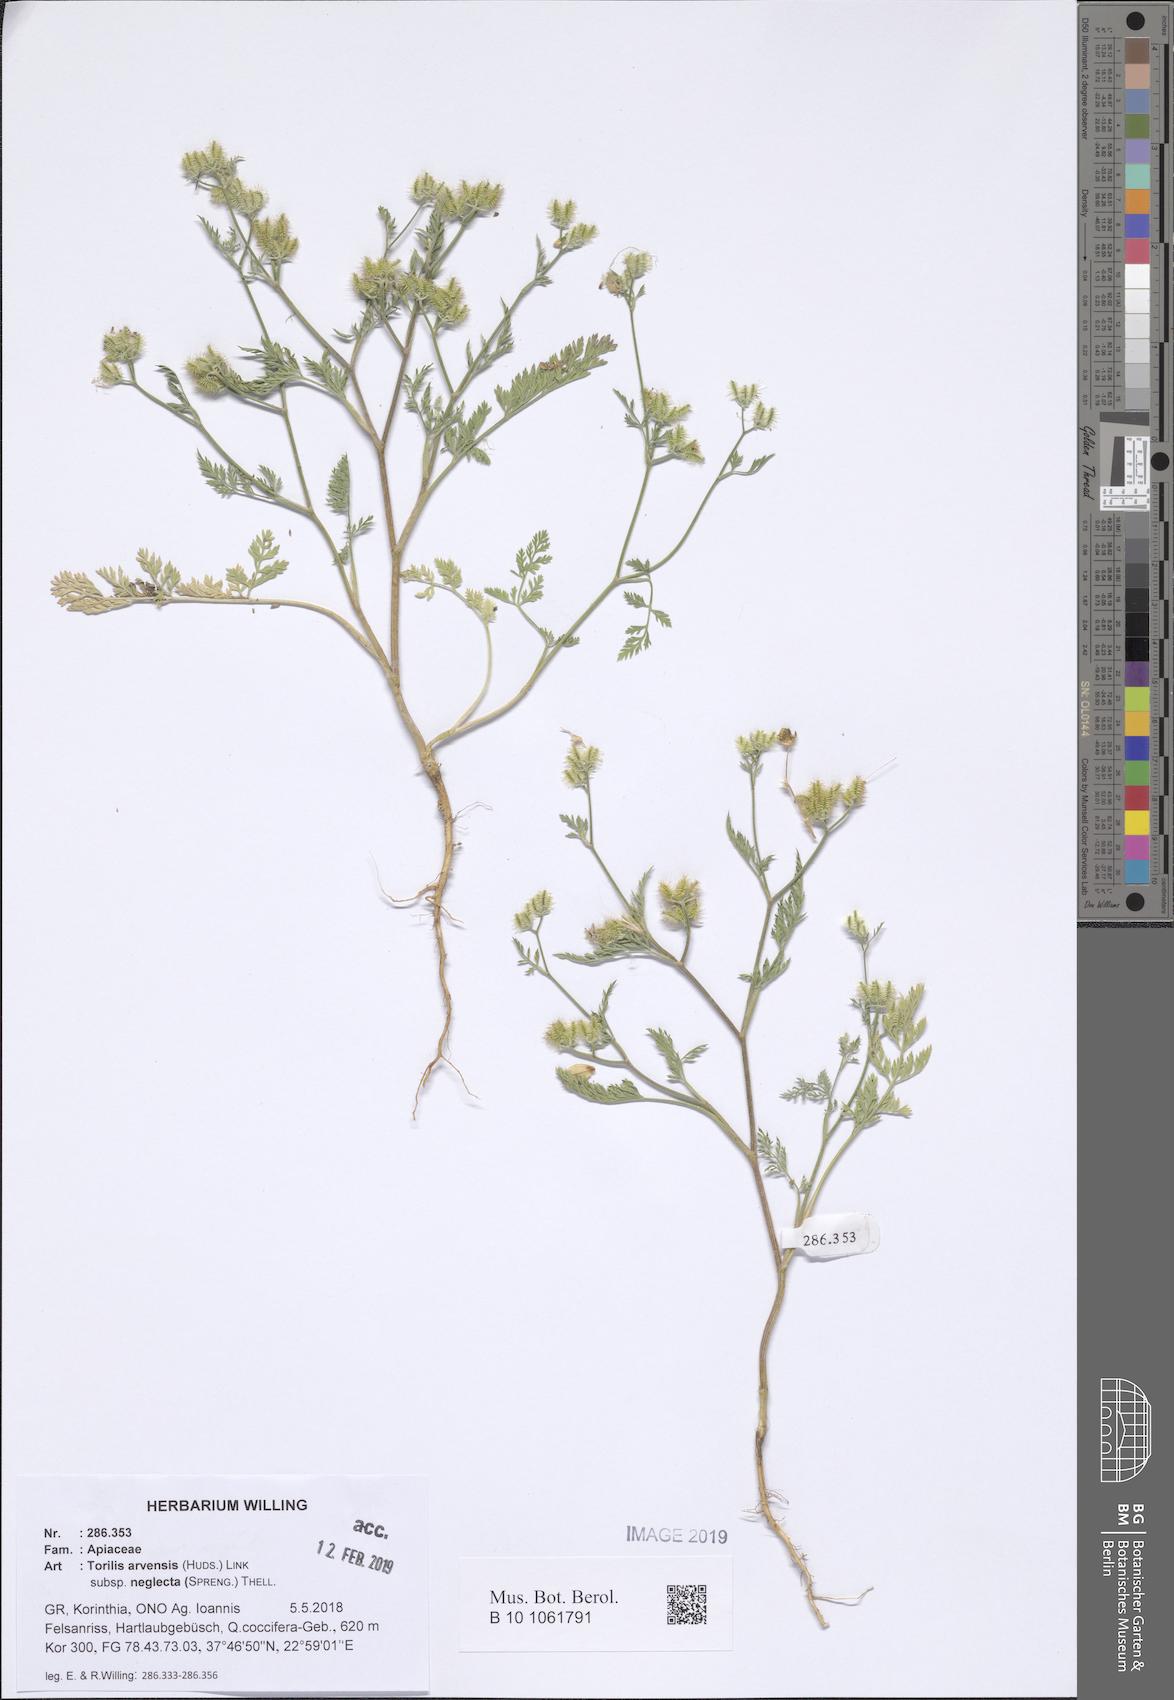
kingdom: Plantae
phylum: Tracheophyta
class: Magnoliopsida
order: Apiales
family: Apiaceae
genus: Torilis
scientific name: Torilis arvensis
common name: Spreading hedge-parsley
